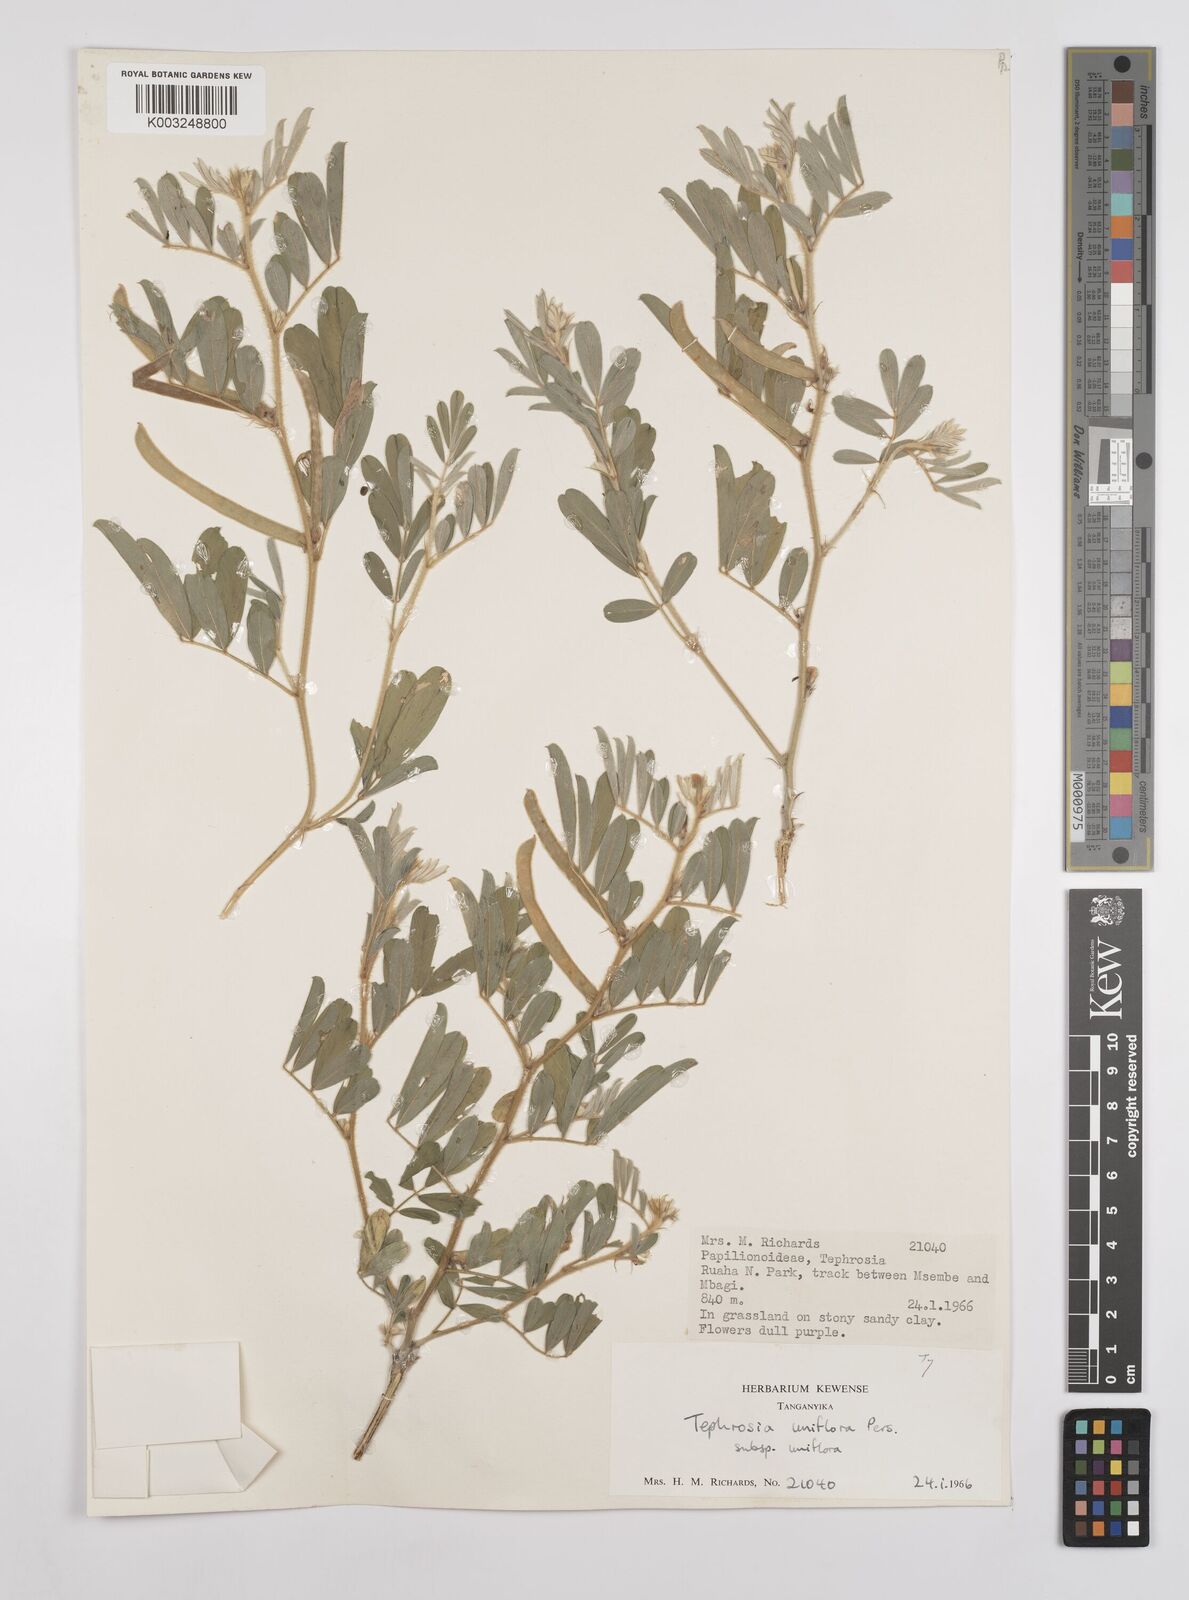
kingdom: Plantae
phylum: Tracheophyta
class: Magnoliopsida
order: Fabales
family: Fabaceae
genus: Tephrosia
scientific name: Tephrosia uniflora
